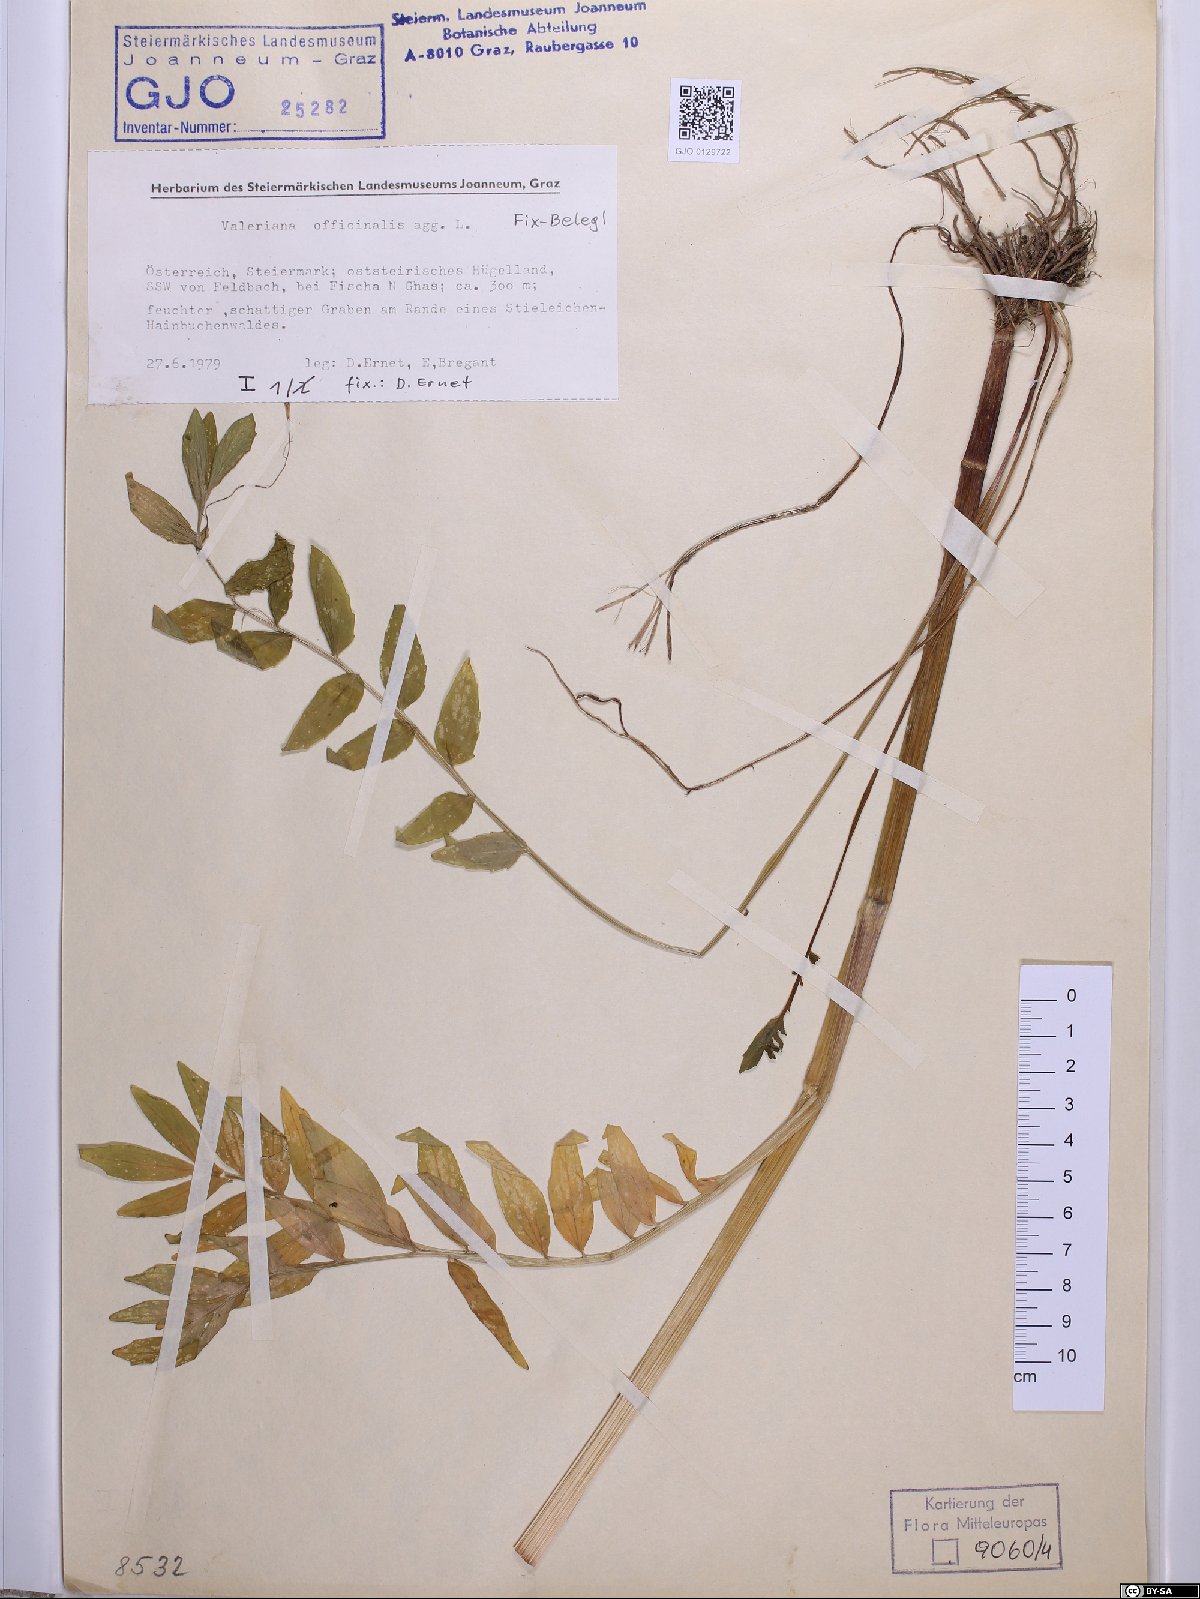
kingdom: Plantae
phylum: Tracheophyta
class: Magnoliopsida
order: Dipsacales
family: Caprifoliaceae
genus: Valeriana
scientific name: Valeriana officinalis
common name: Common valerian
